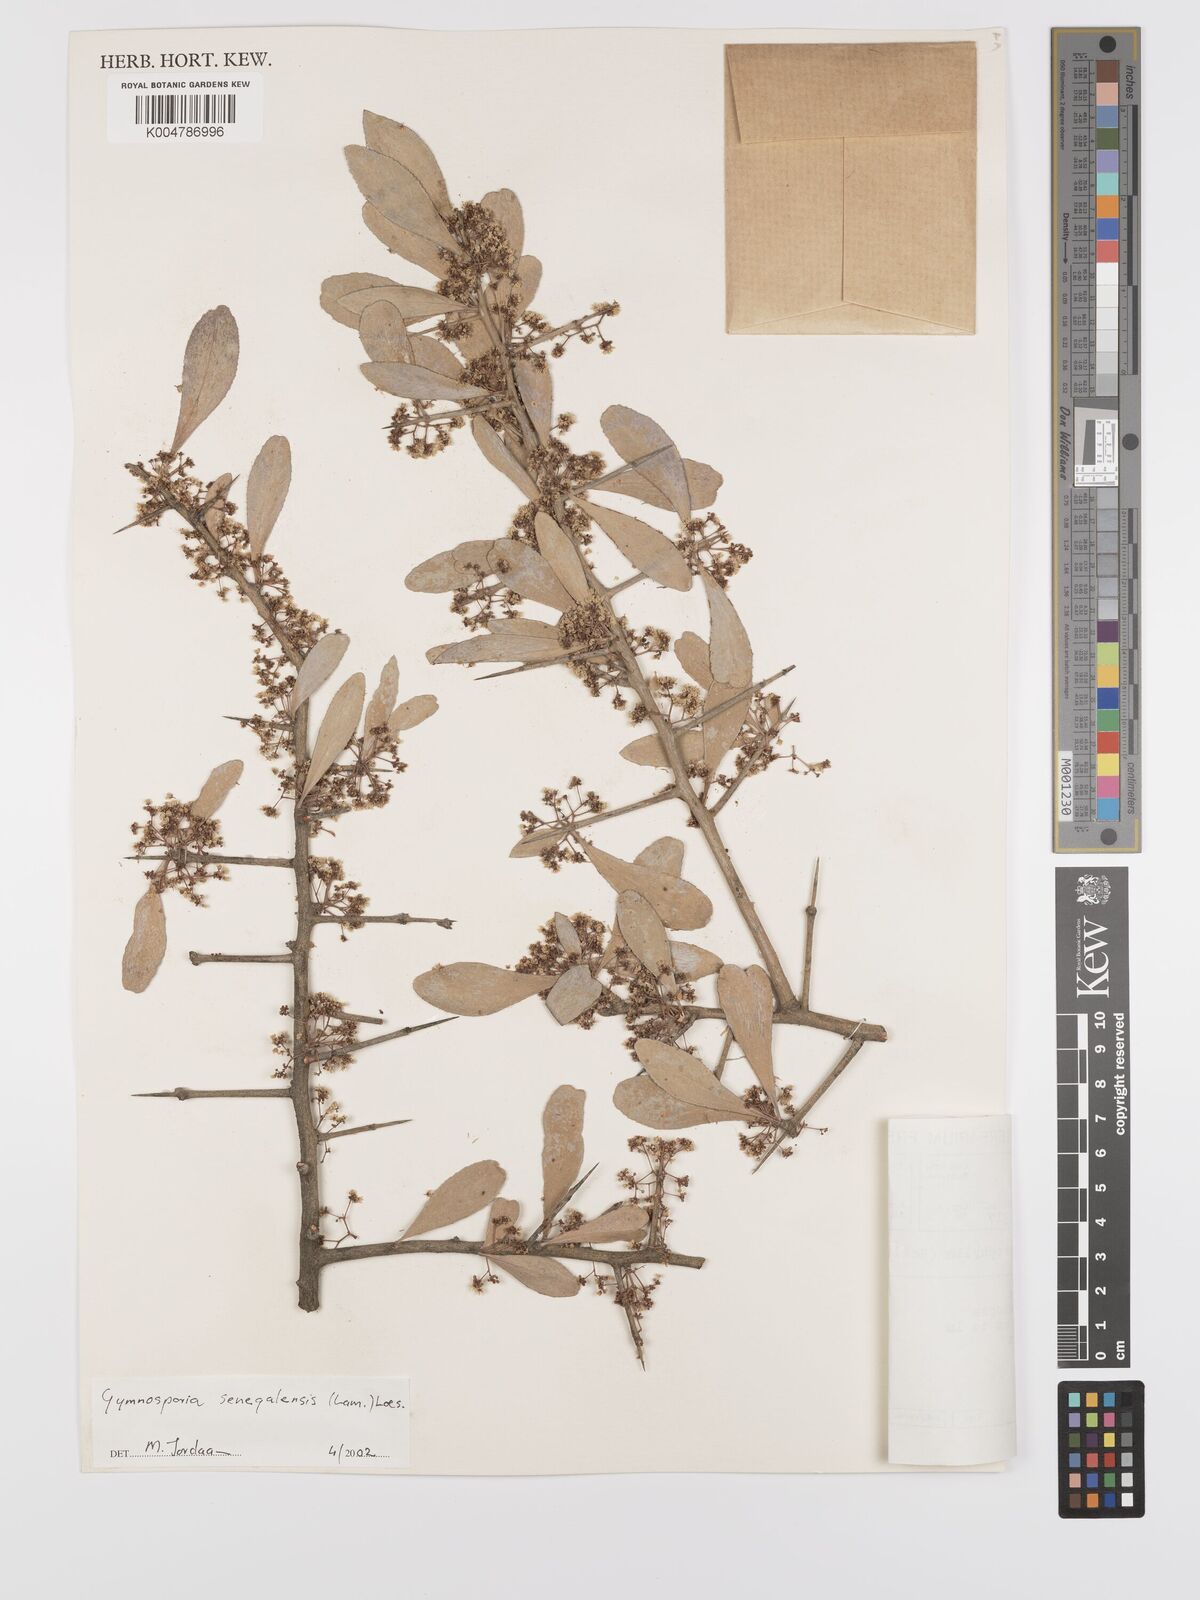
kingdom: Plantae
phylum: Tracheophyta
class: Magnoliopsida
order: Celastrales
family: Celastraceae
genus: Gymnosporia
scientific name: Gymnosporia senegalensis
